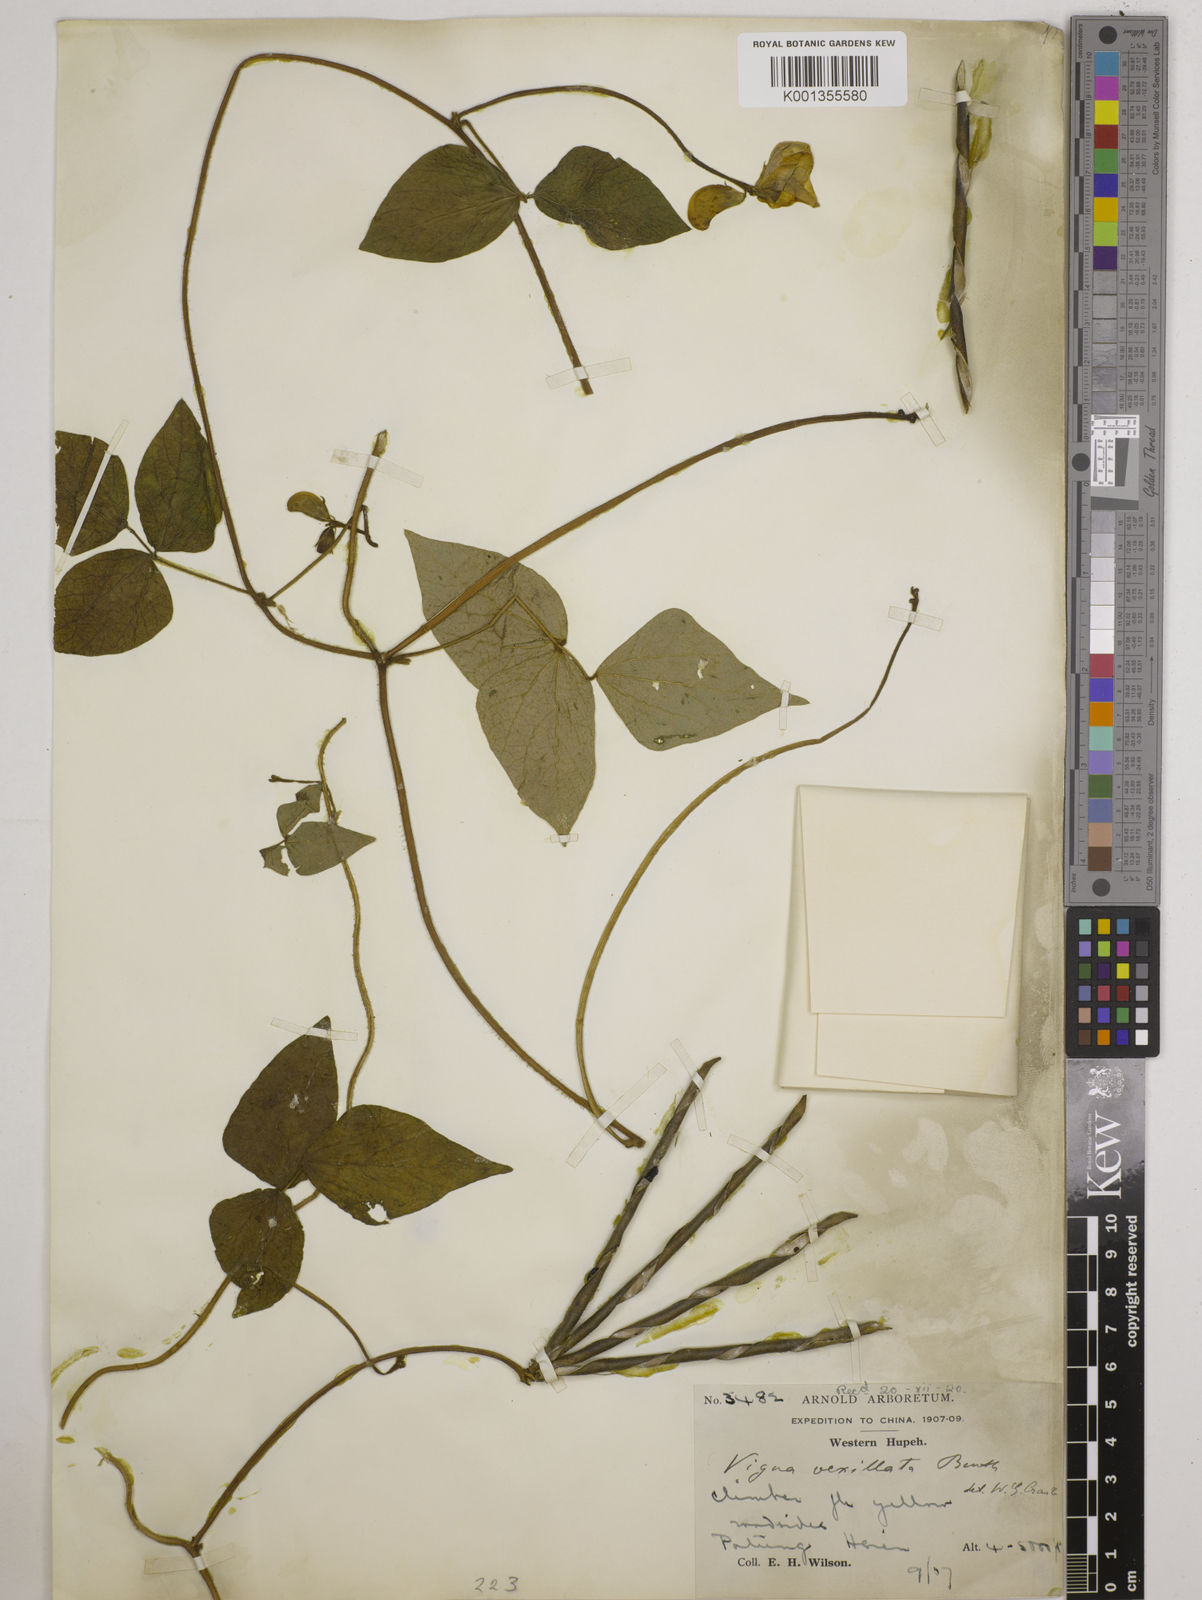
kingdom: Plantae
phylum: Tracheophyta
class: Magnoliopsida
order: Fabales
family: Fabaceae
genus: Vigna
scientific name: Vigna vexillata
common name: Zombi pea
